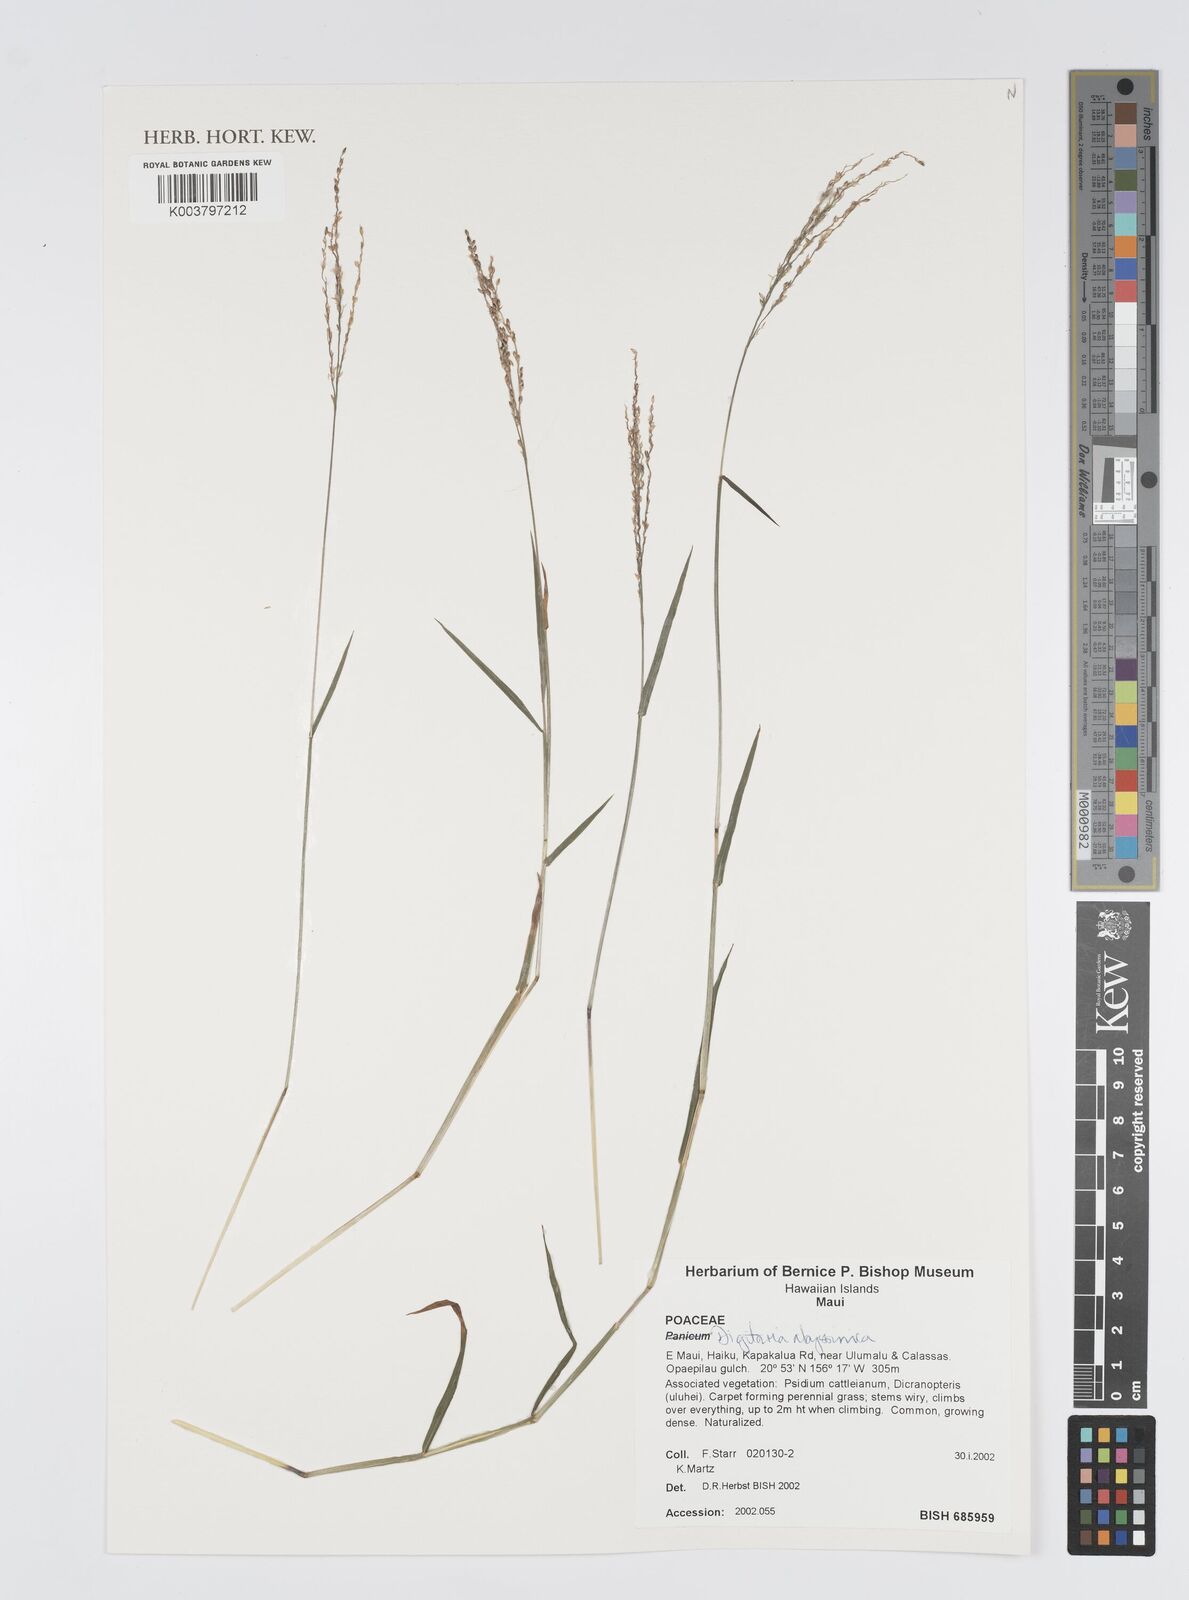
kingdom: Plantae
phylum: Tracheophyta
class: Liliopsida
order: Poales
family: Poaceae
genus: Digitaria
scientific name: Digitaria abyssinica
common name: African couchgrass
